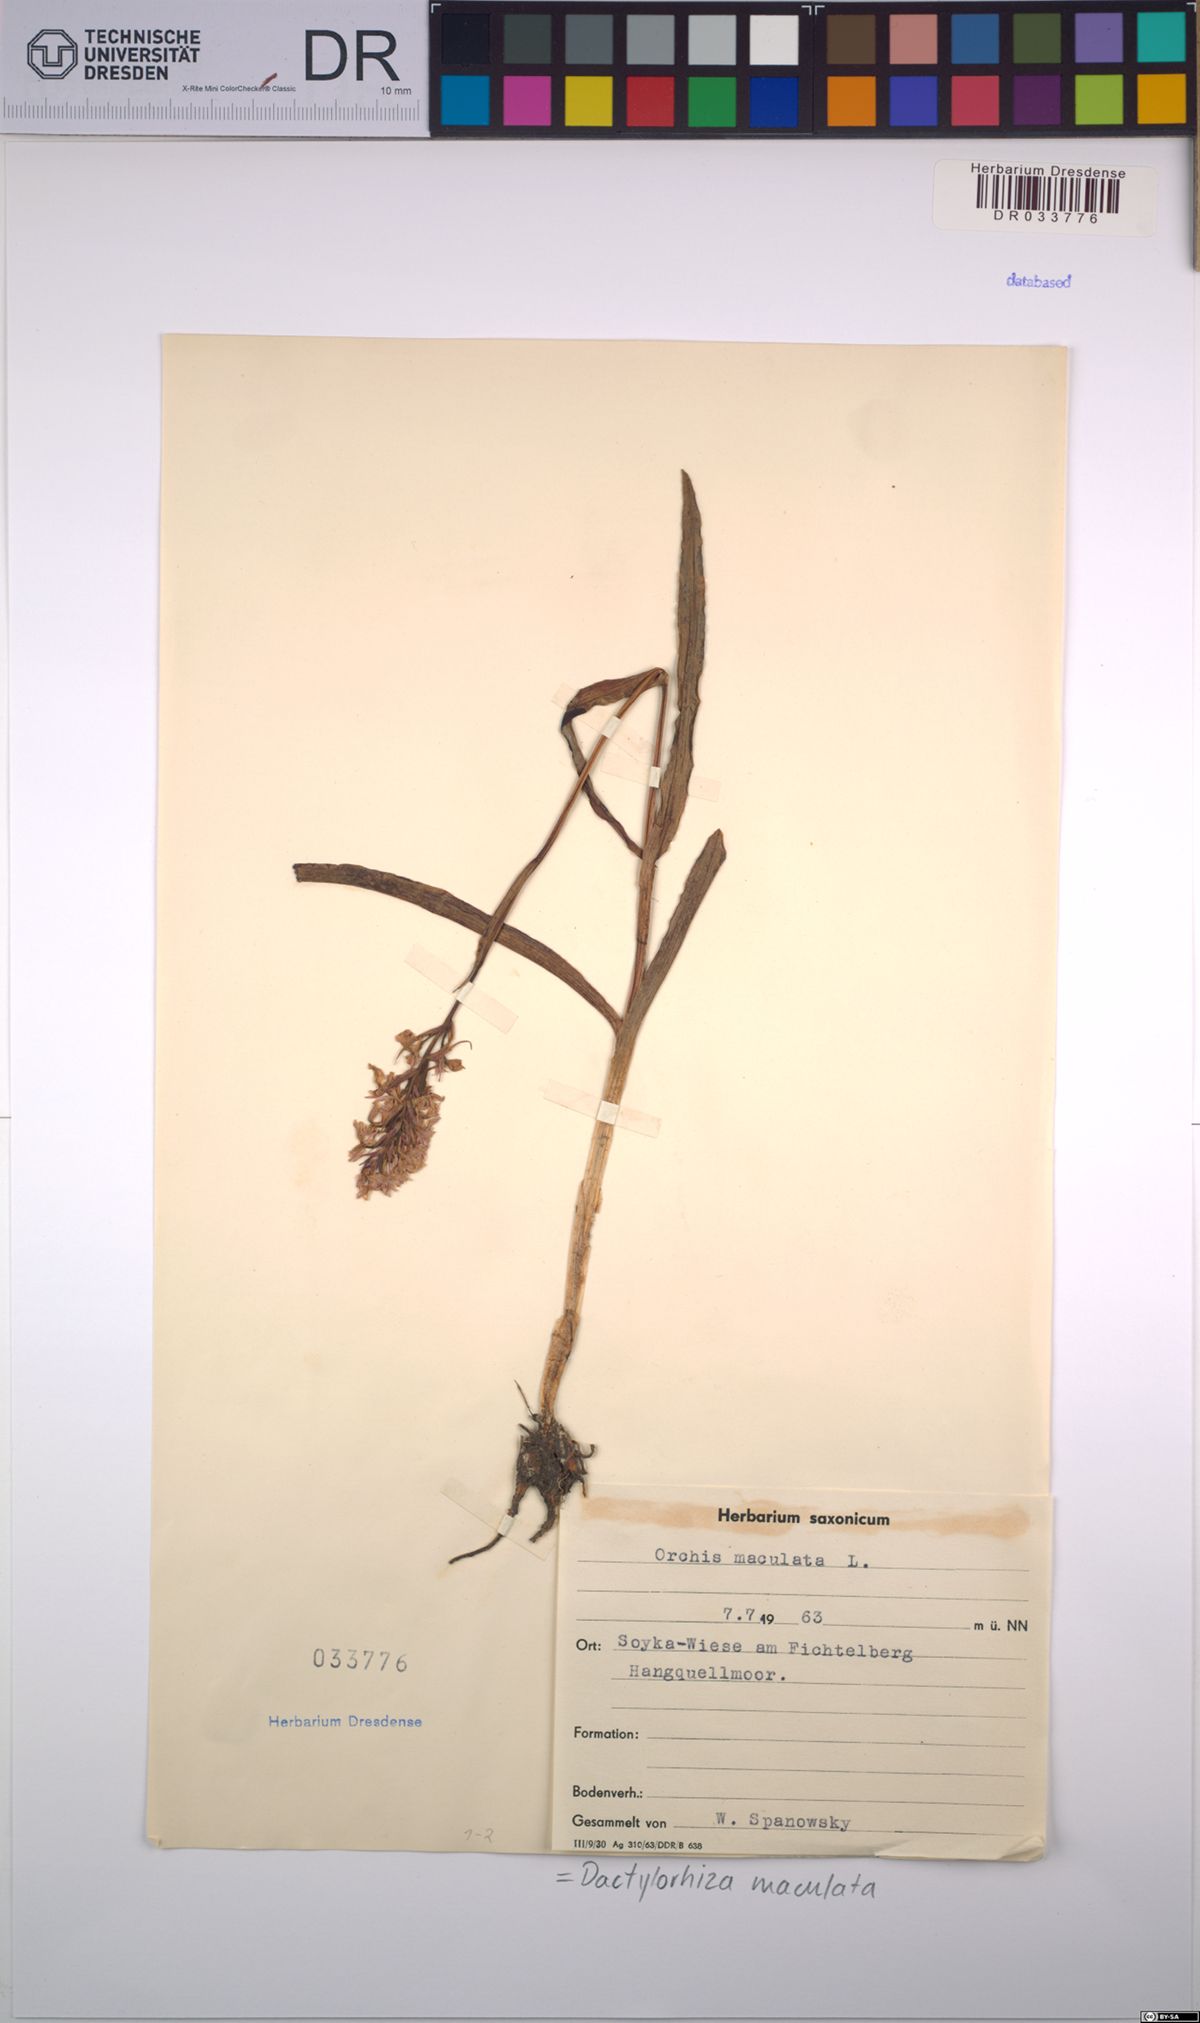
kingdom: Plantae
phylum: Tracheophyta
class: Liliopsida
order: Asparagales
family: Orchidaceae
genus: Dactylorhiza
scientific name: Dactylorhiza maculata
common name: Heath spotted-orchid
